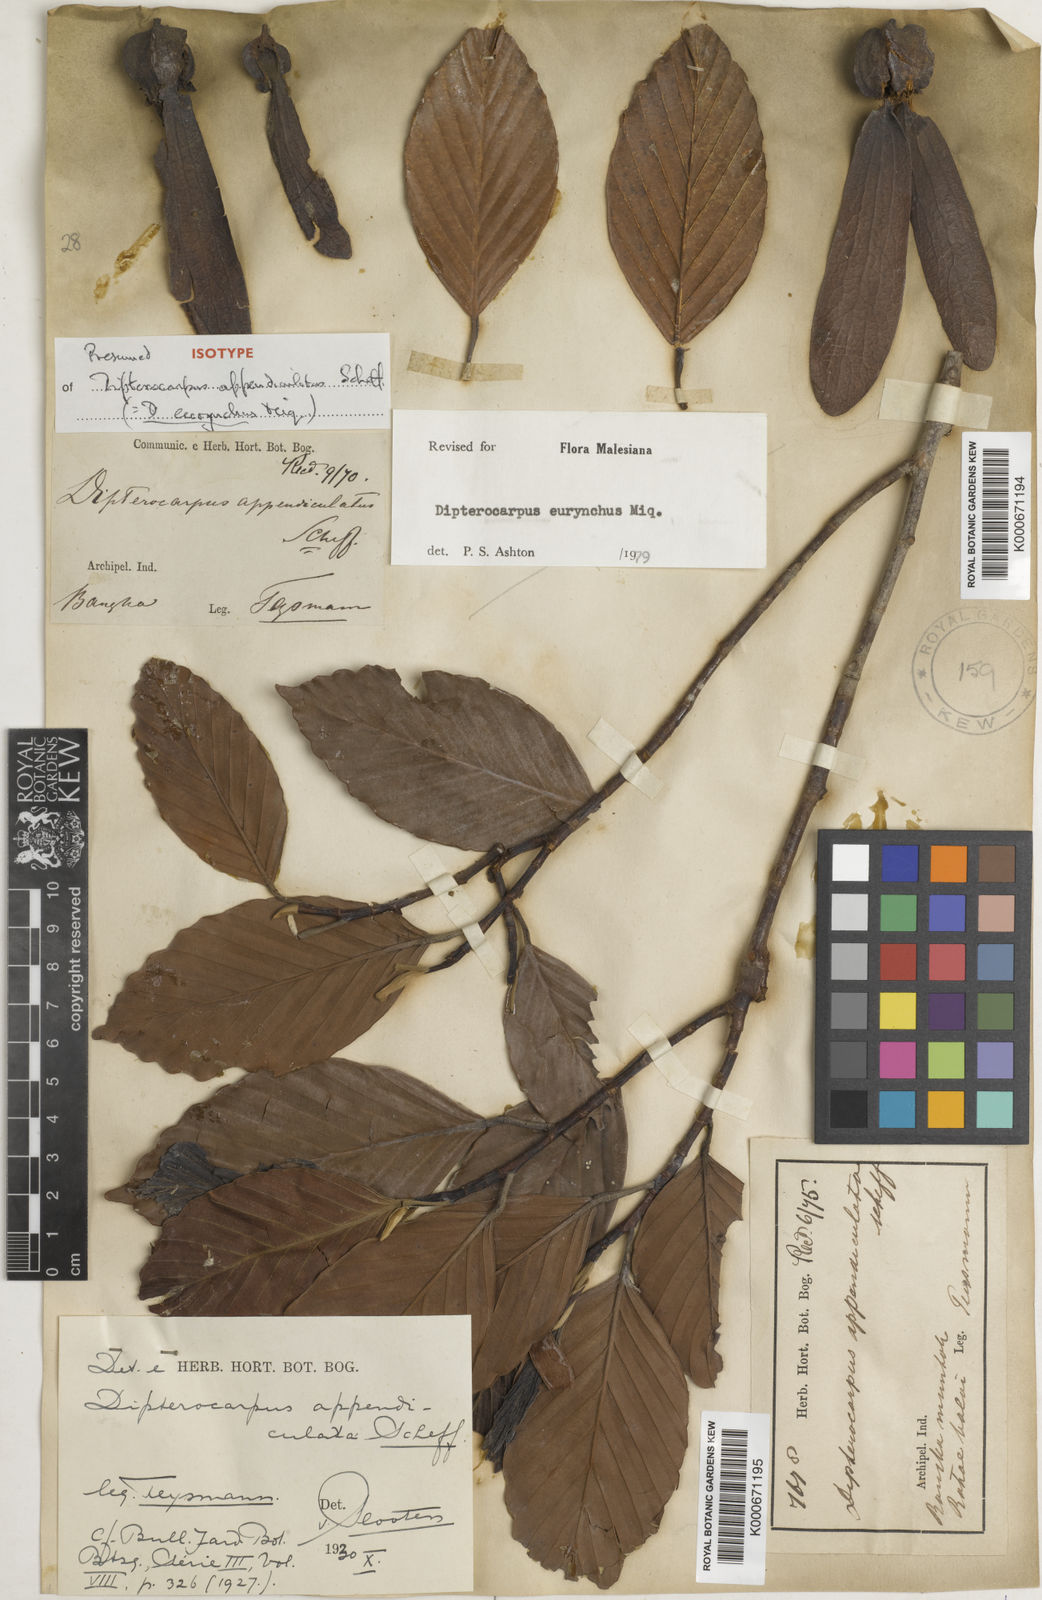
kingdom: Plantae
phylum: Tracheophyta
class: Magnoliopsida
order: Malvales
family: Dipterocarpaceae
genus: Dipterocarpus
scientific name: Dipterocarpus
